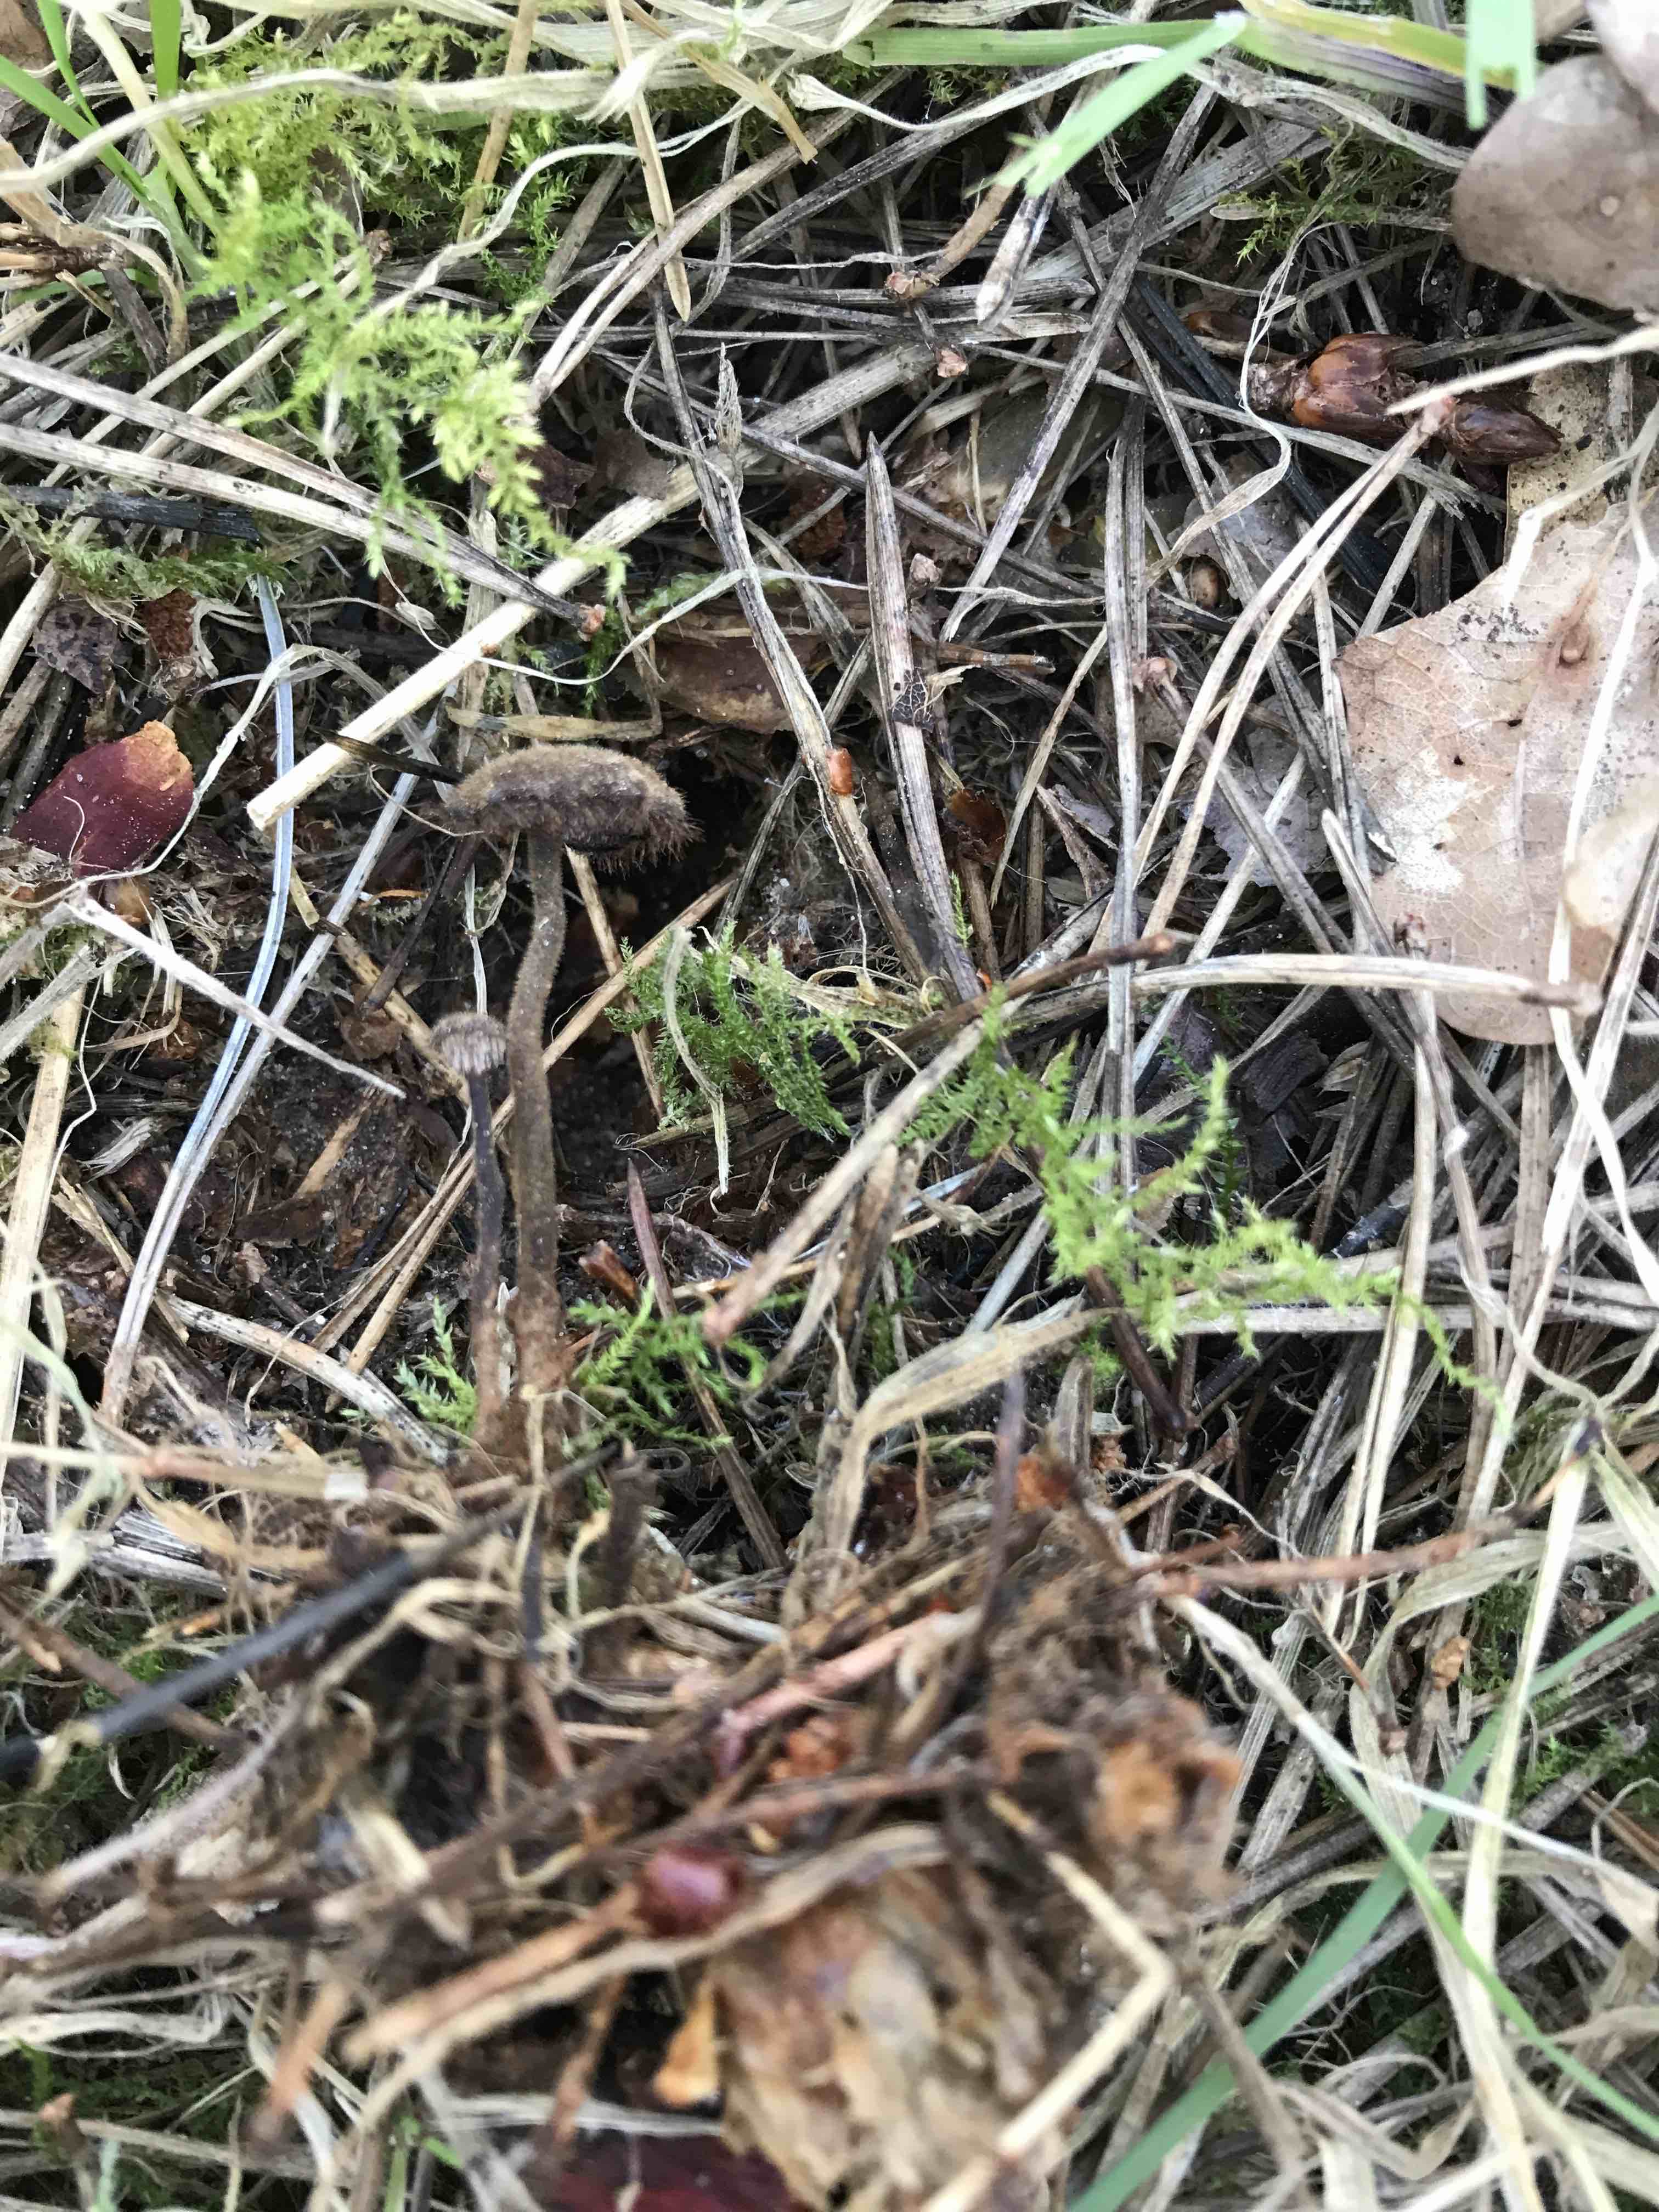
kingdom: Fungi
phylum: Basidiomycota
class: Agaricomycetes
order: Russulales
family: Auriscalpiaceae
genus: Auriscalpium
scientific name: Auriscalpium vulgare
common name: koglepigsvamp
